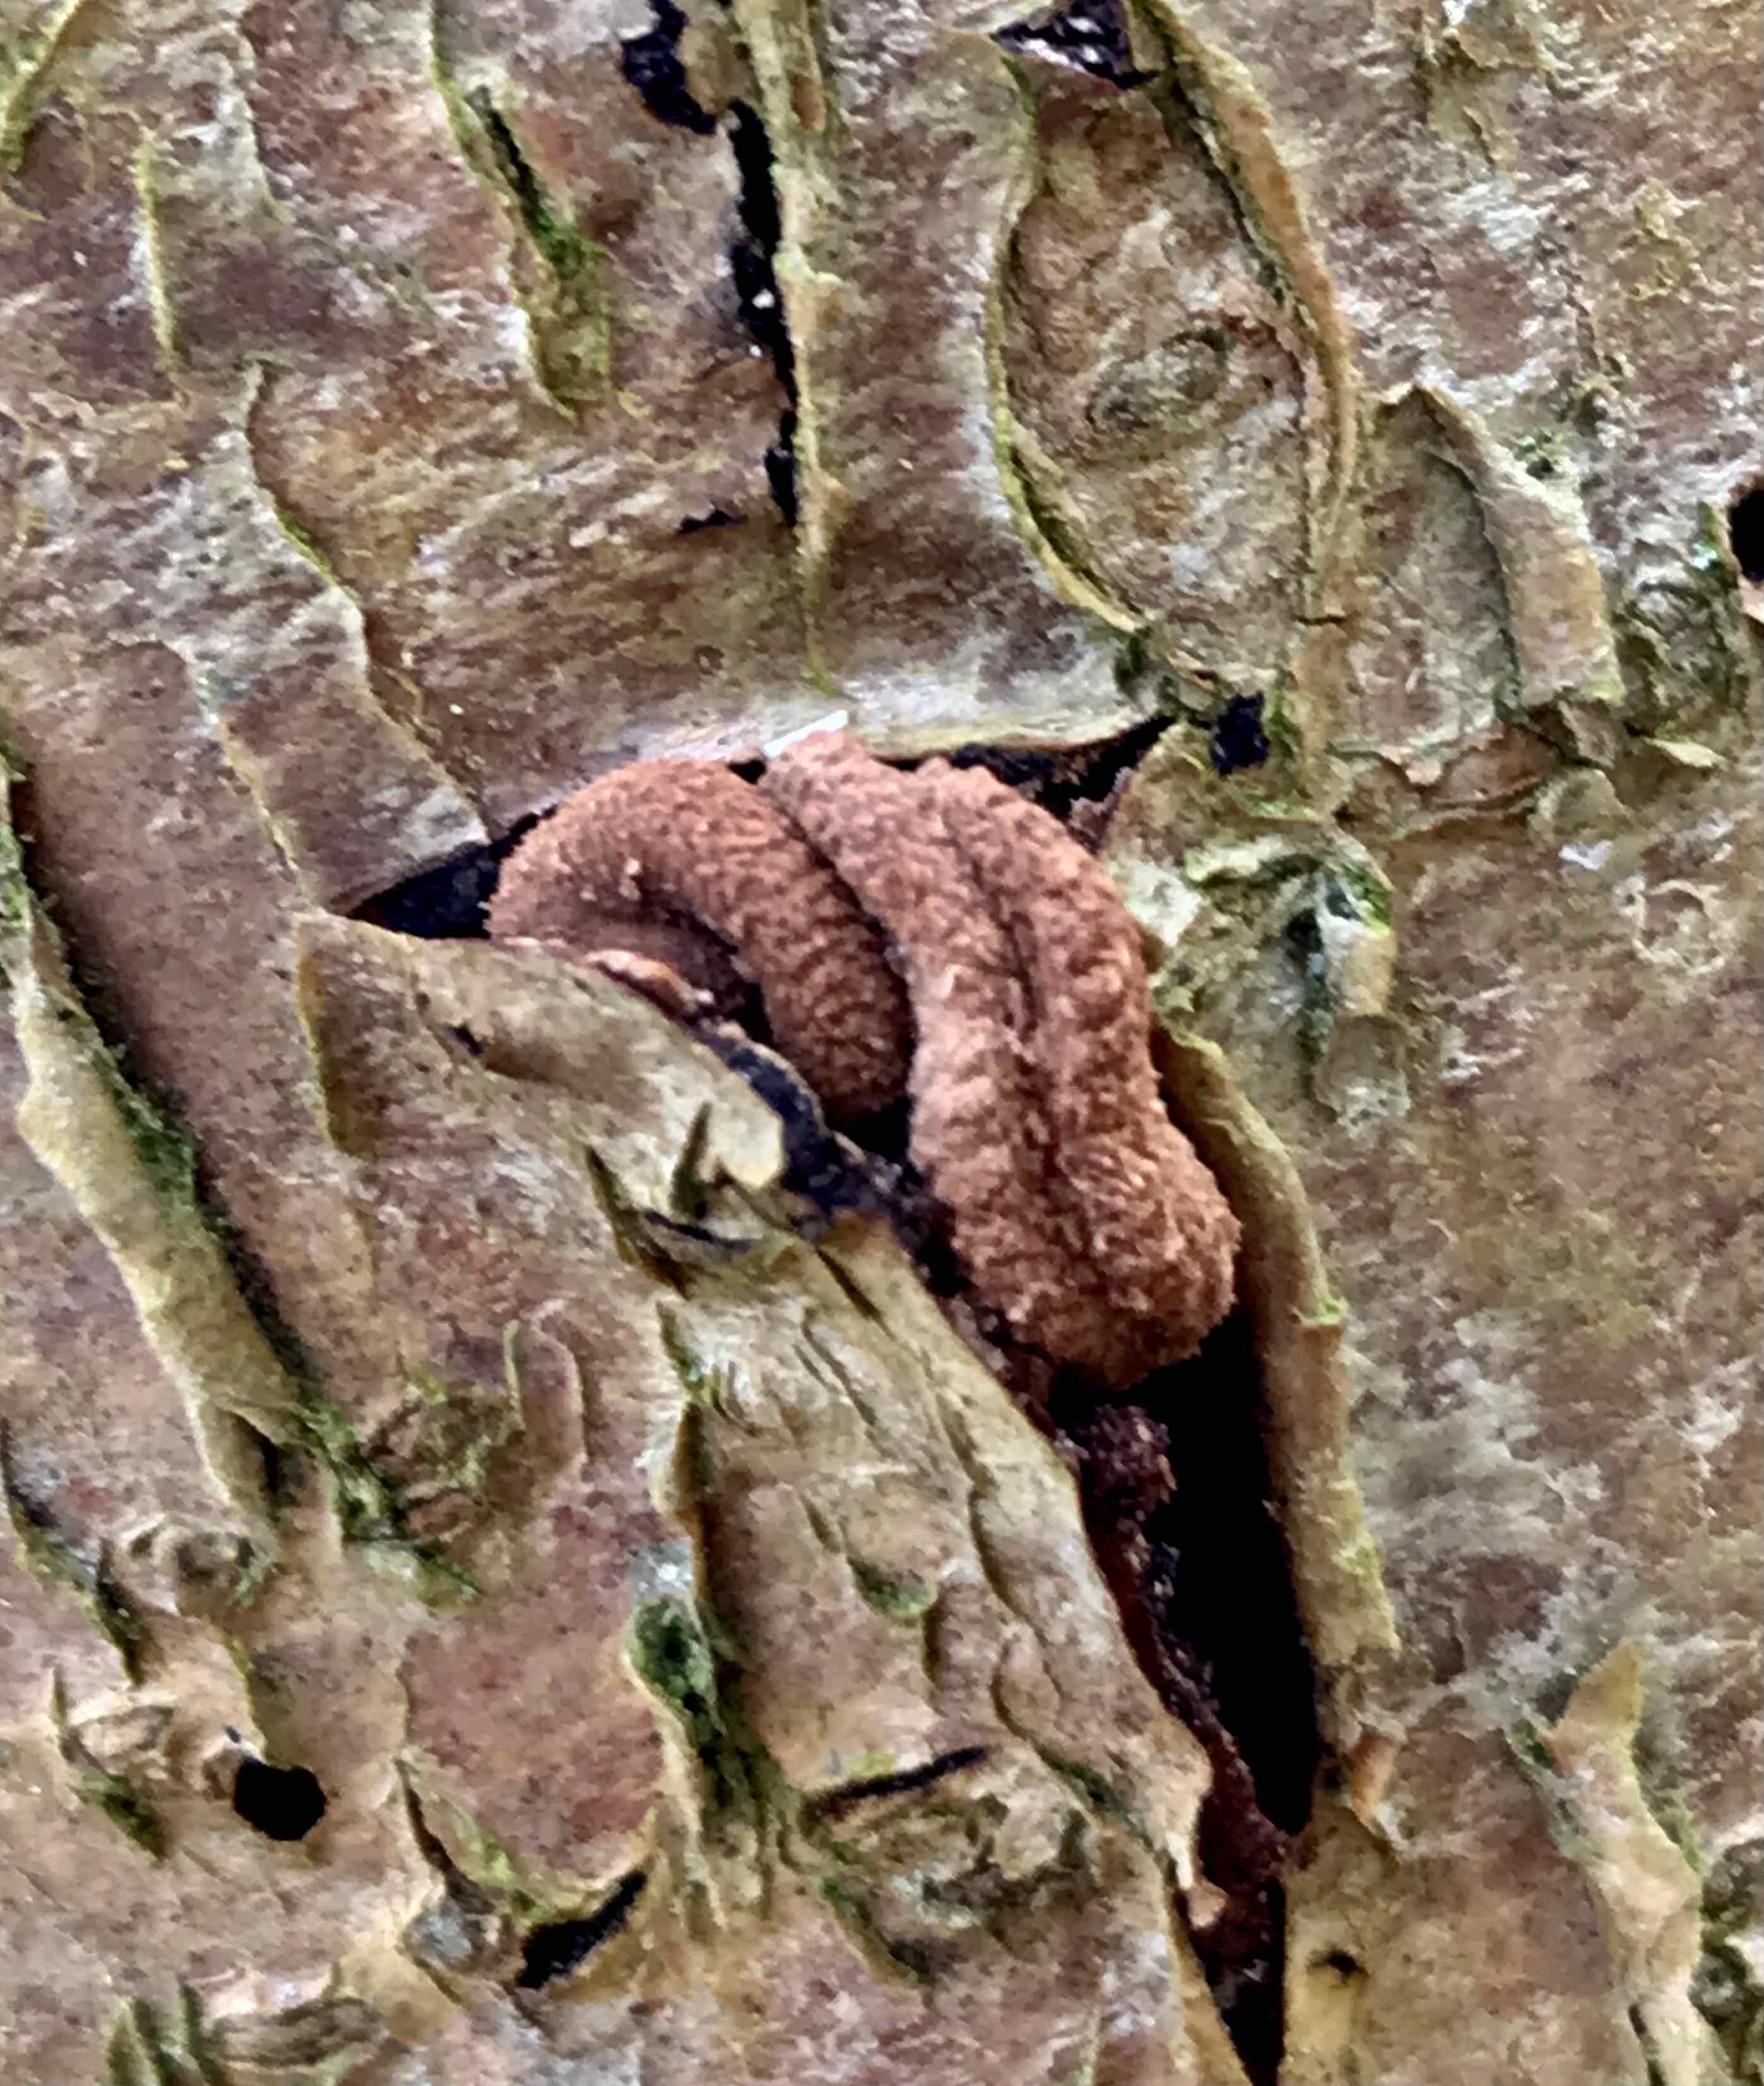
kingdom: Fungi
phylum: Ascomycota
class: Leotiomycetes
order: Helotiales
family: Cenangiaceae
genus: Encoelia
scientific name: Encoelia furfuracea
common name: hassel-læderskive
